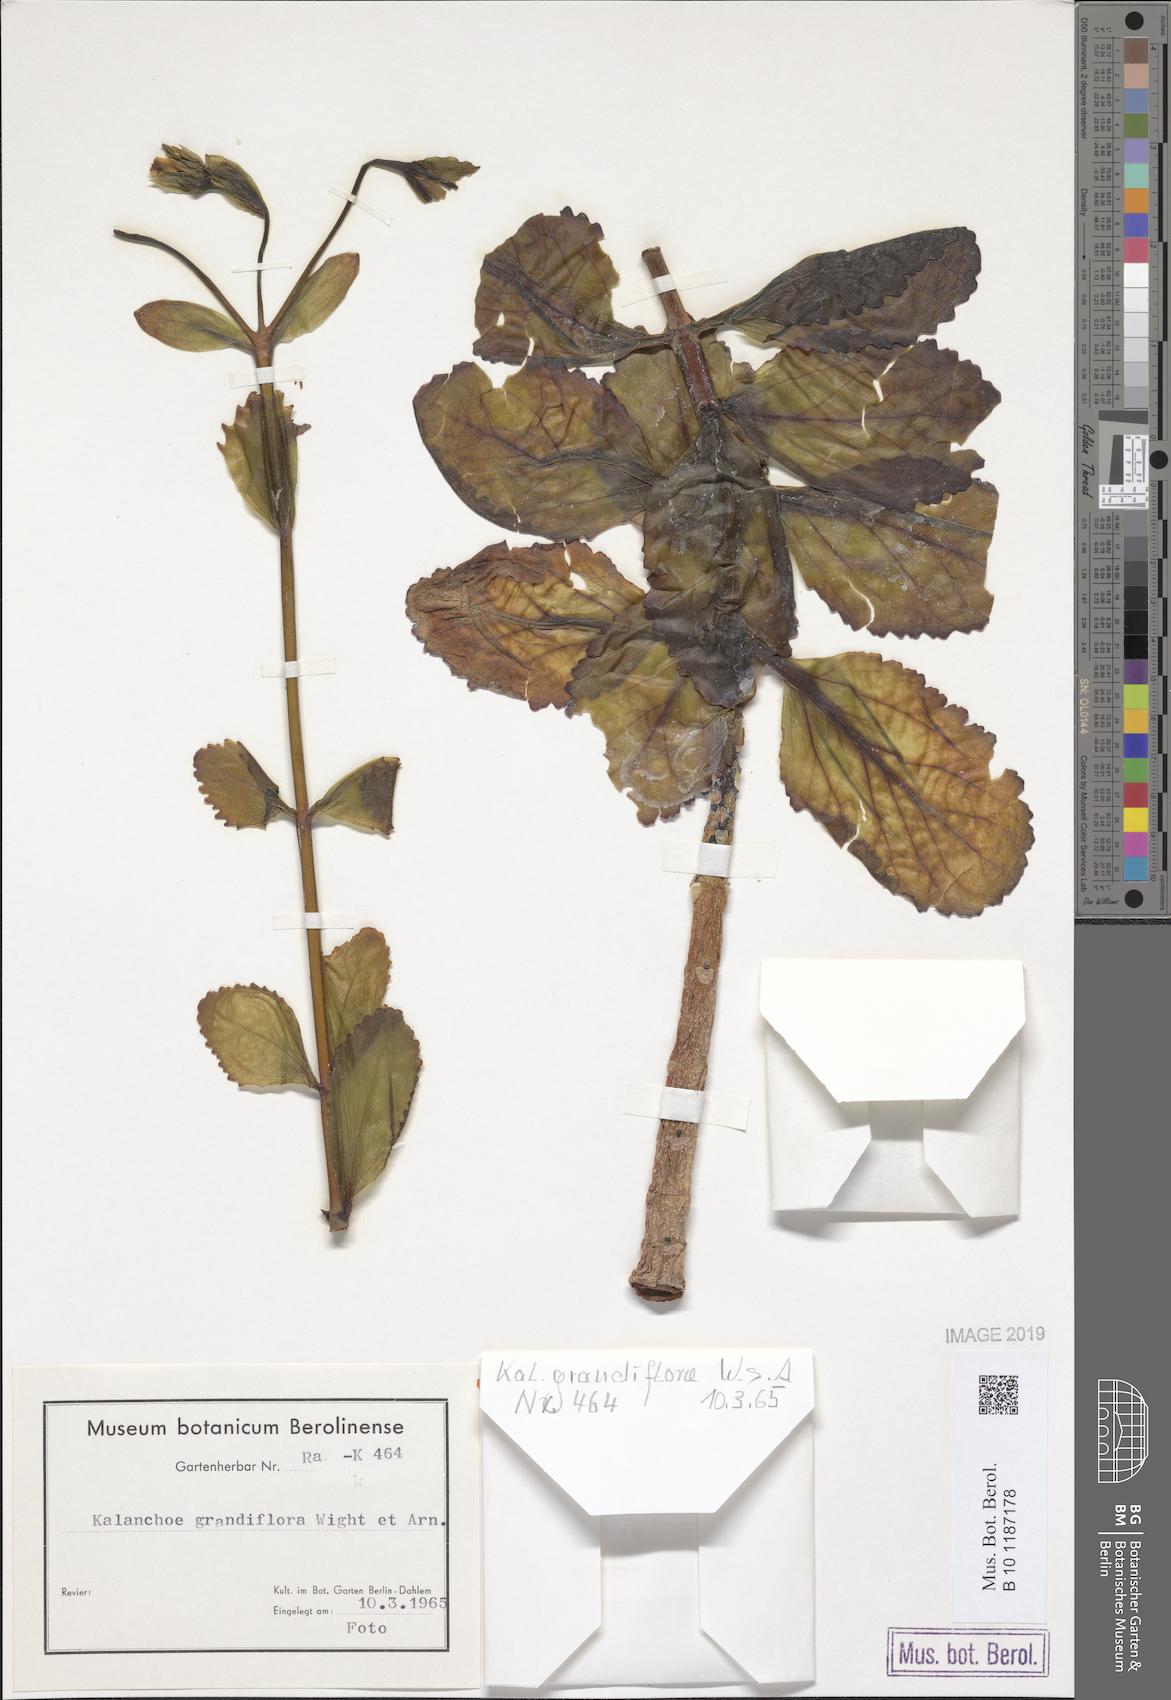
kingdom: Plantae
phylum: Tracheophyta
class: Magnoliopsida
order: Saxifragales
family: Crassulaceae
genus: Kalanchoe
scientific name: Kalanchoe grandiflora
